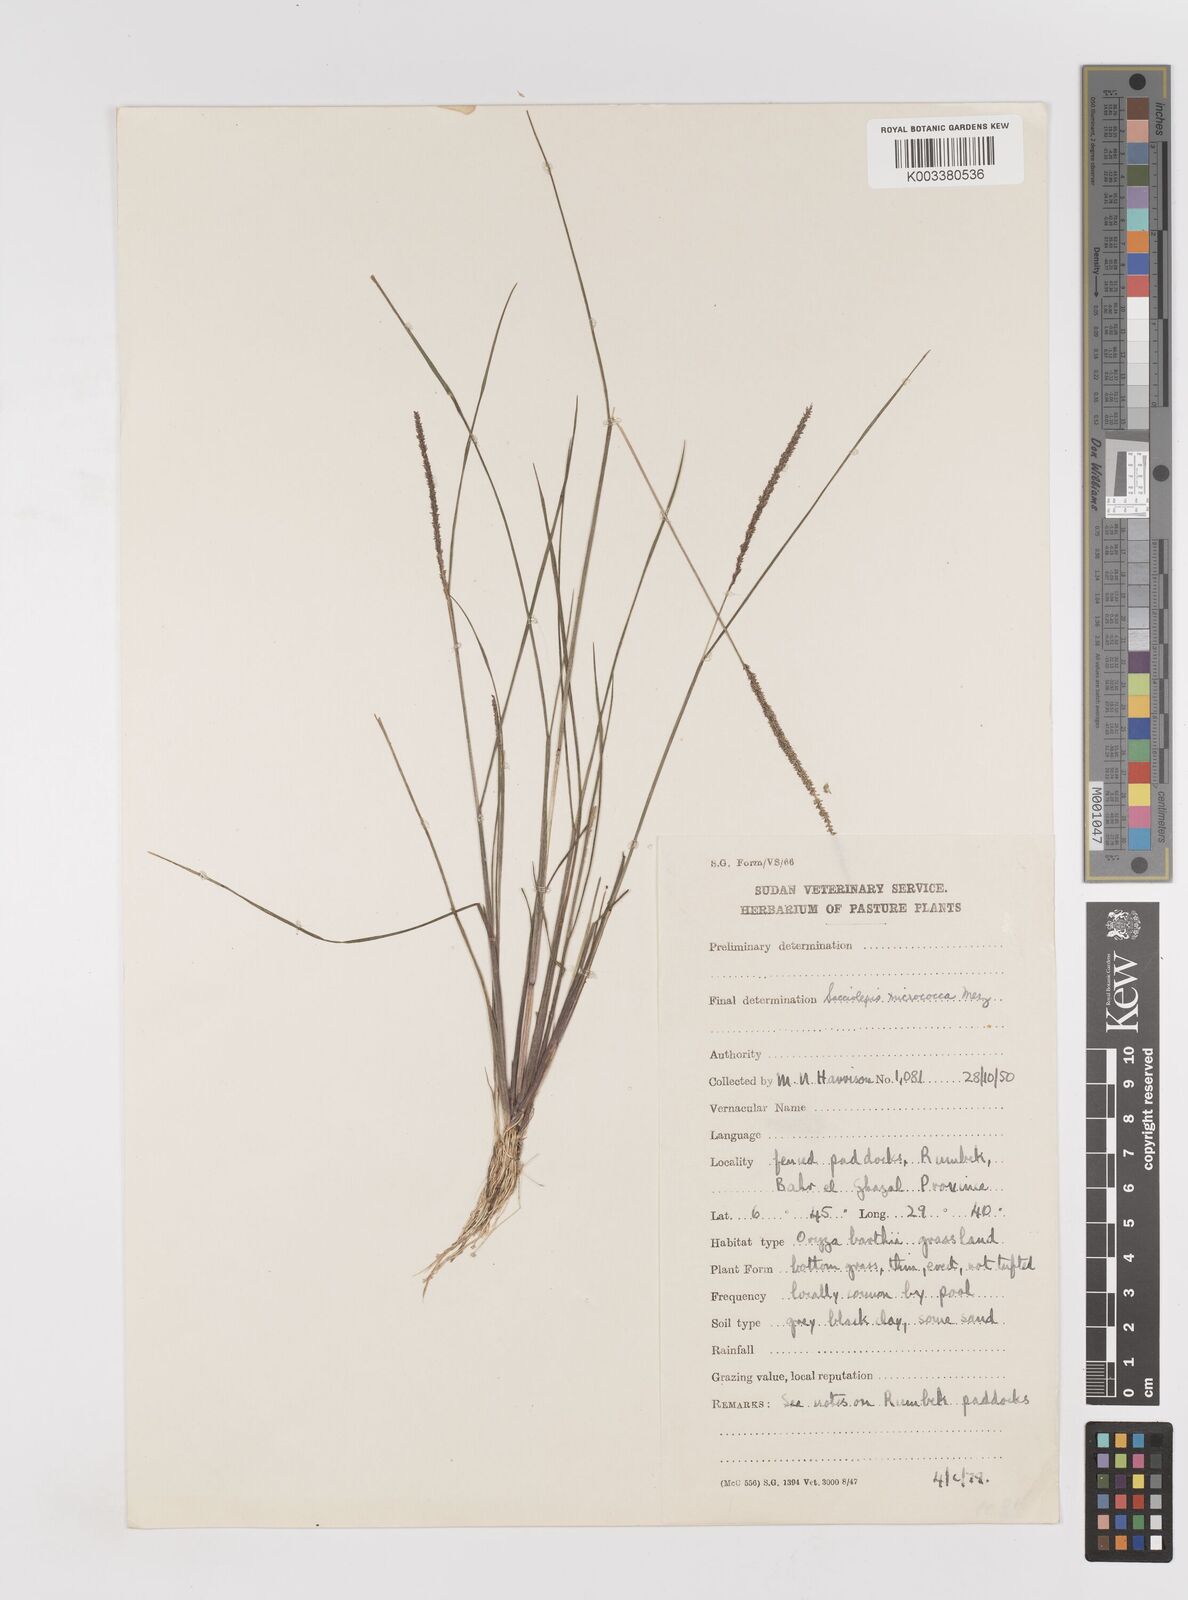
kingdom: Plantae
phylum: Tracheophyta
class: Liliopsida
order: Poales
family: Poaceae
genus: Sacciolepis
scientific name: Sacciolepis micrococca
